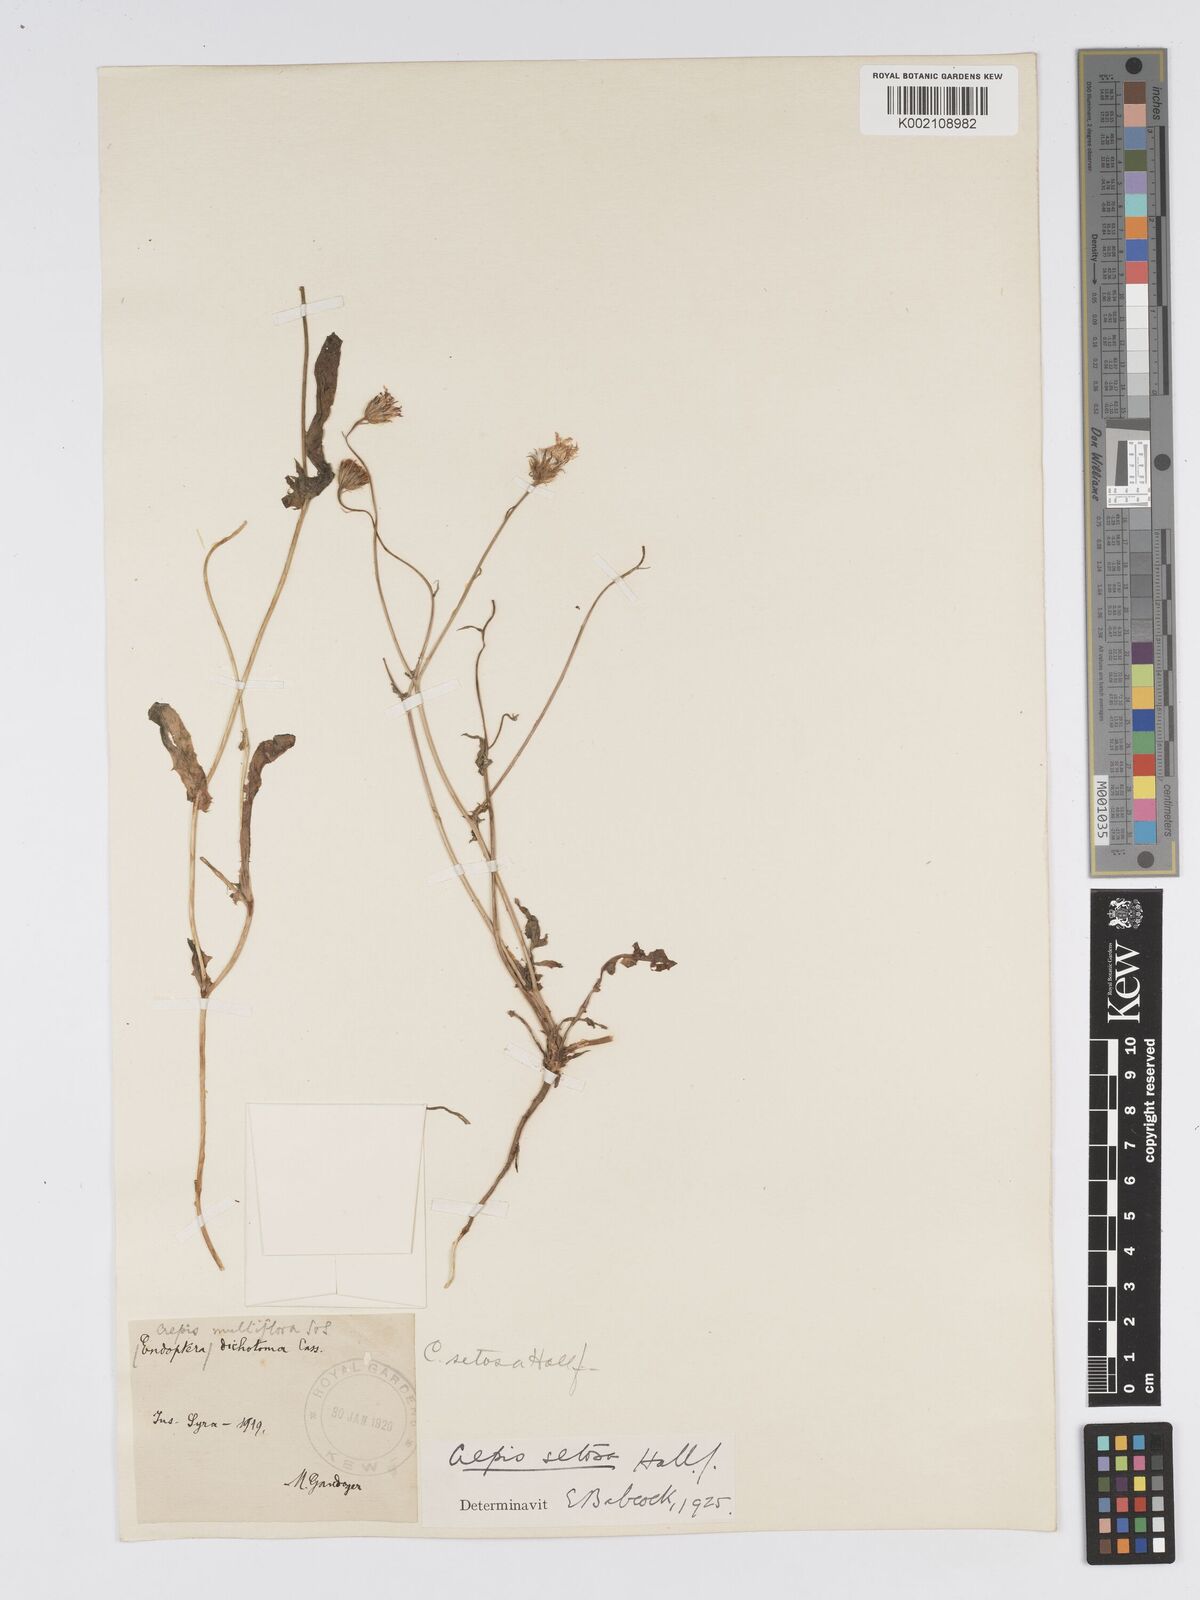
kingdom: Plantae
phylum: Tracheophyta
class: Magnoliopsida
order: Asterales
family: Asteraceae
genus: Crepis
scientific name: Crepis setosa
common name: Bristly hawk's-beard
